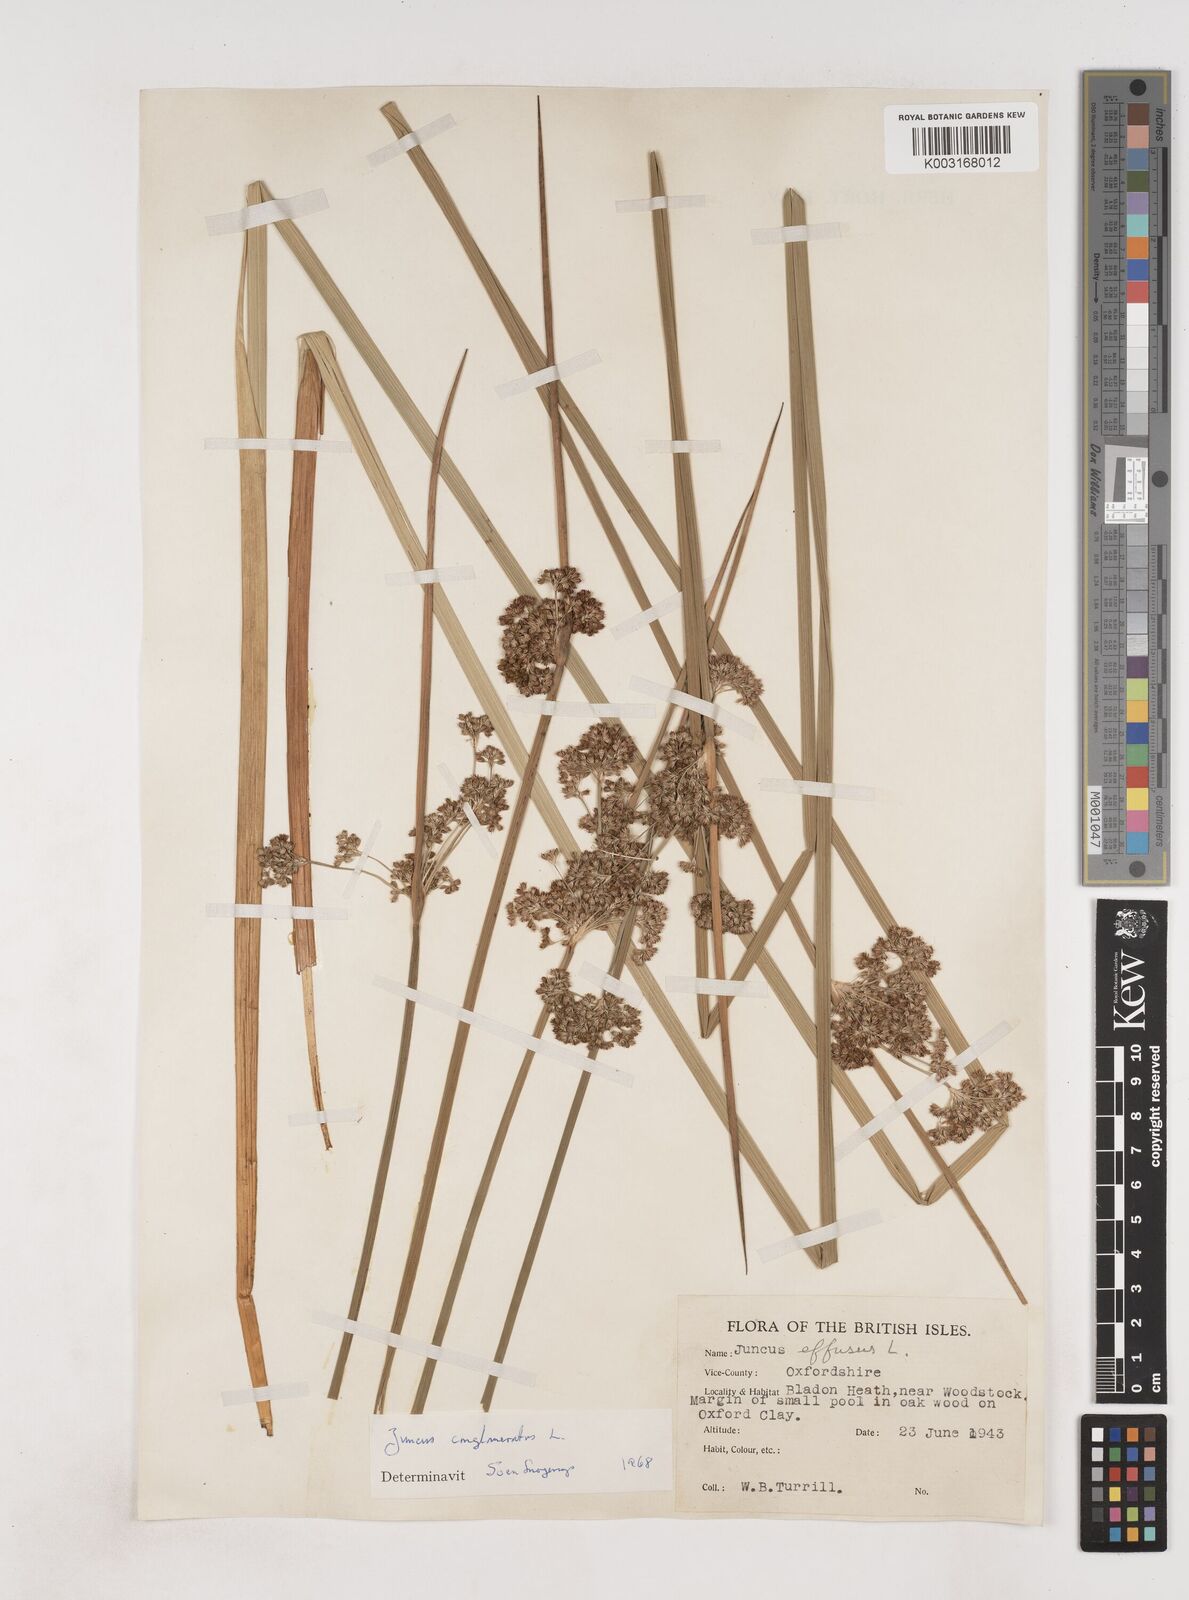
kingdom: Plantae
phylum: Tracheophyta
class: Liliopsida
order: Poales
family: Juncaceae
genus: Juncus
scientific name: Juncus conglomeratus
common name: Compact rush
